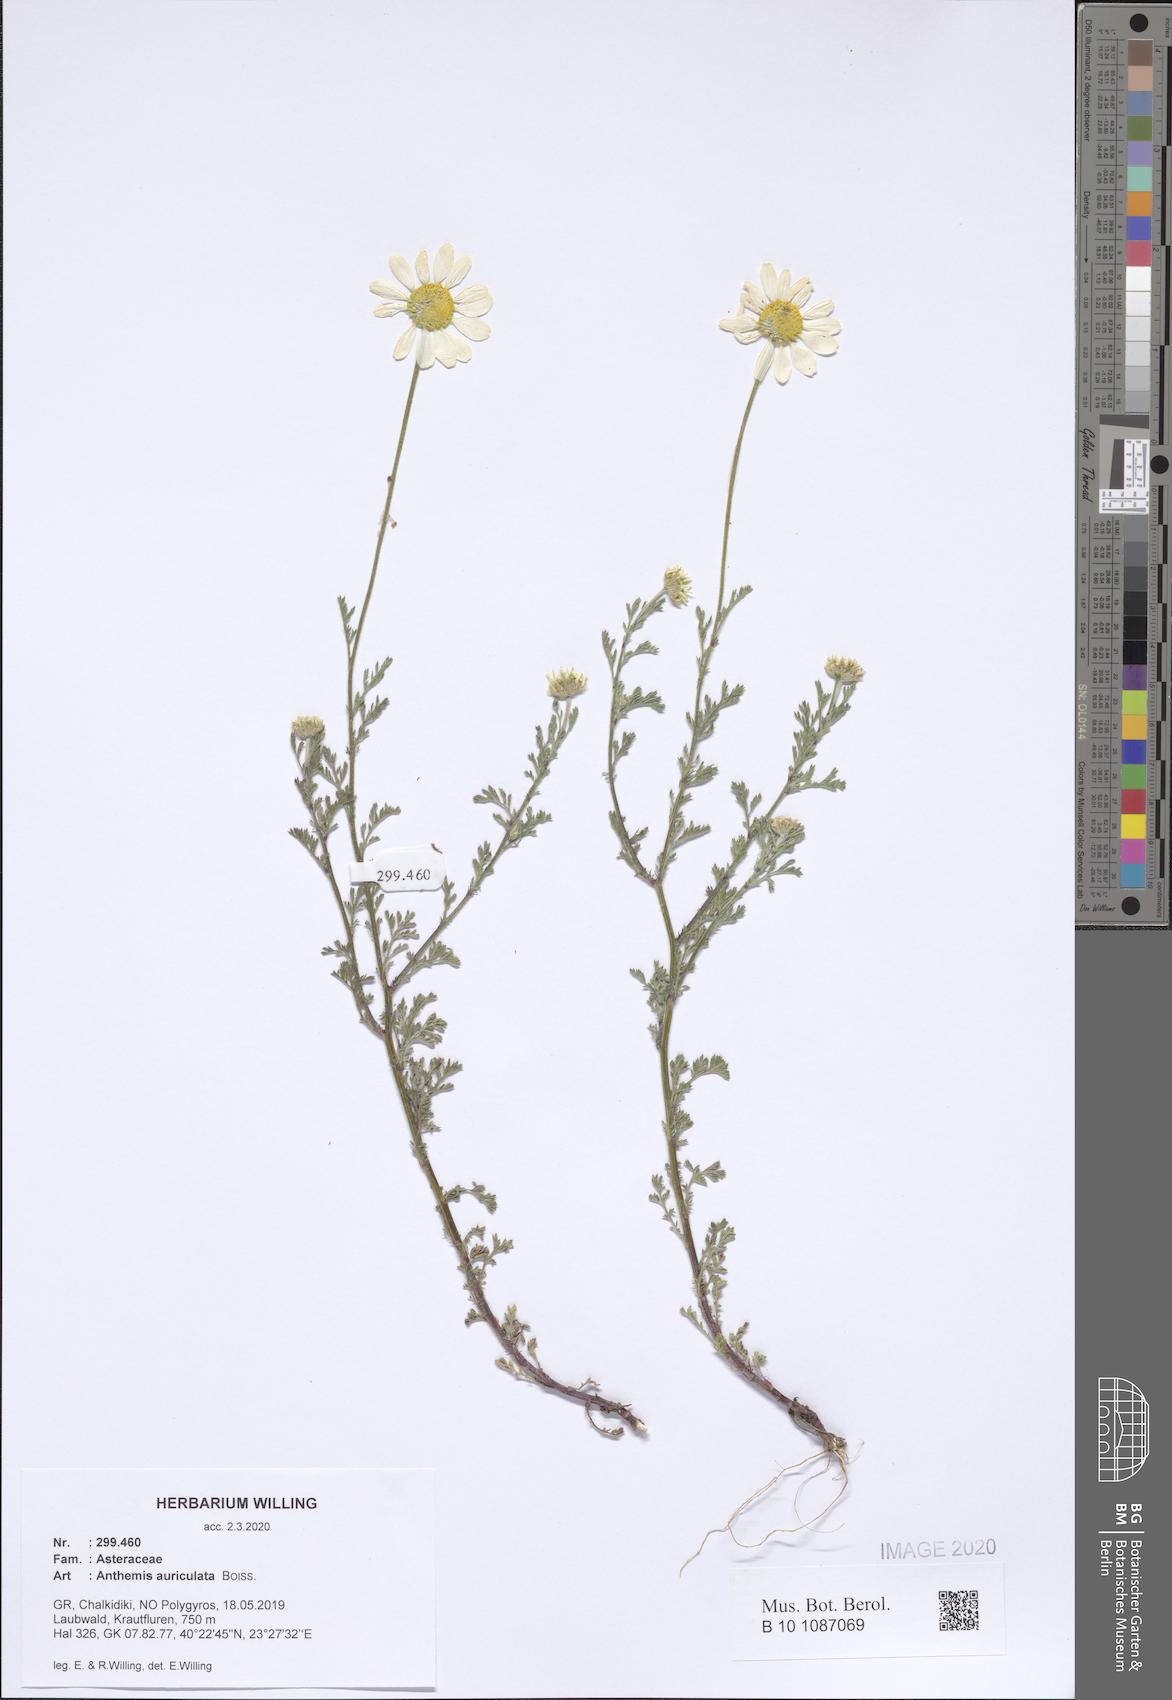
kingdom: Plantae
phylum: Tracheophyta
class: Magnoliopsida
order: Asterales
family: Asteraceae
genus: Anthemis
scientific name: Anthemis auriculata
